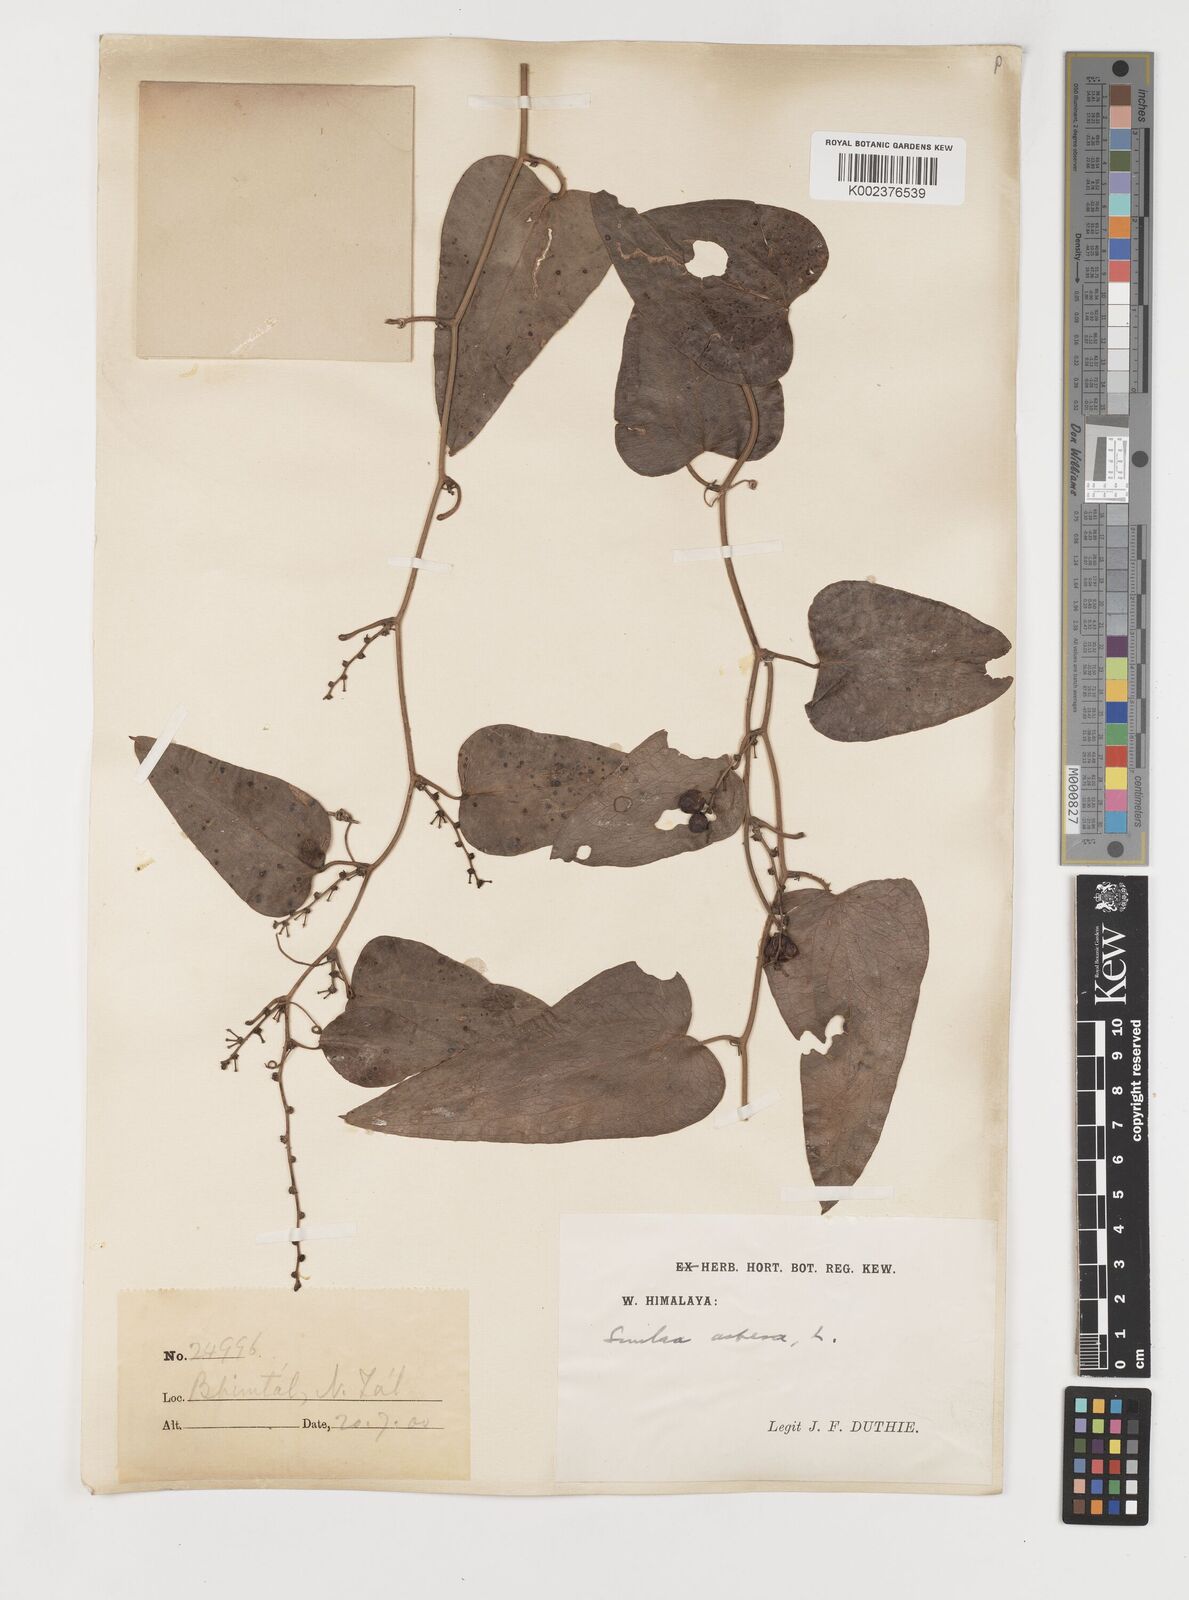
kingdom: Plantae
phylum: Tracheophyta
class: Liliopsida
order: Liliales
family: Smilacaceae
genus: Smilax
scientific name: Smilax aspera
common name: Common smilax
